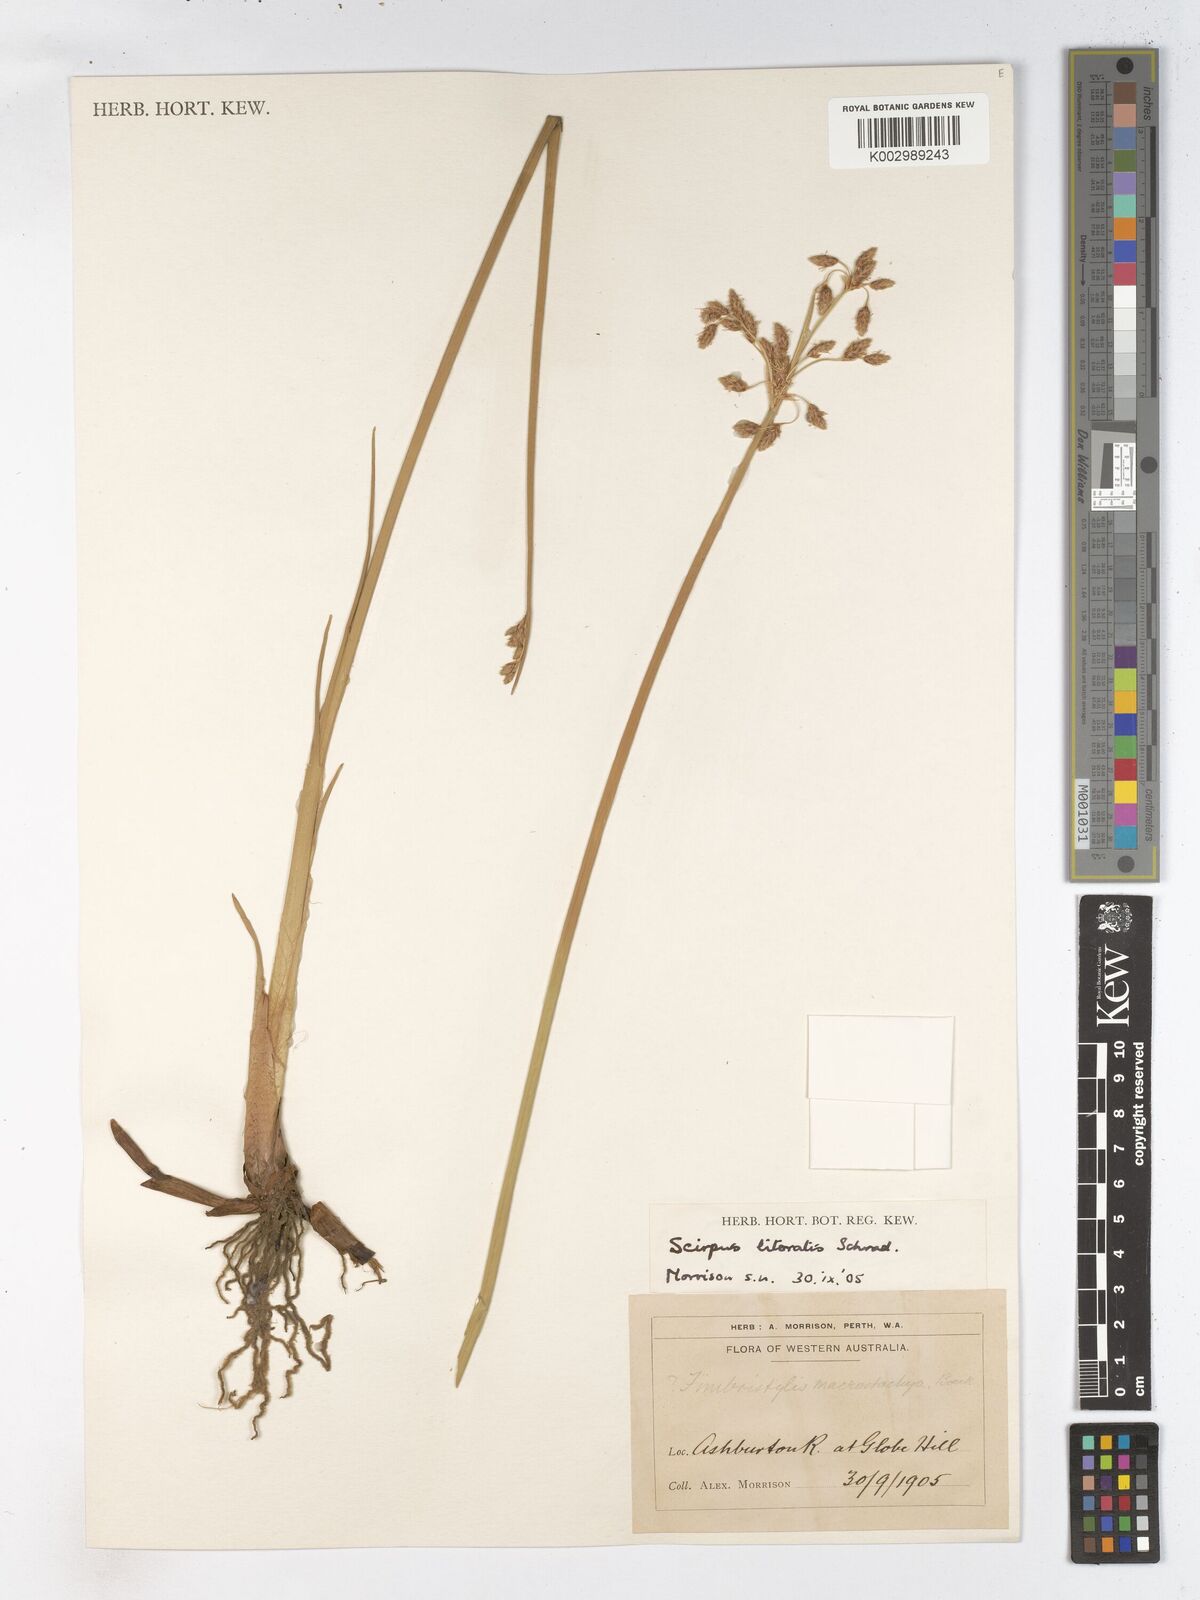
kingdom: Plantae
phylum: Tracheophyta
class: Liliopsida
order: Poales
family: Cyperaceae
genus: Schoenoplectus
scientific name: Schoenoplectus litoralis
